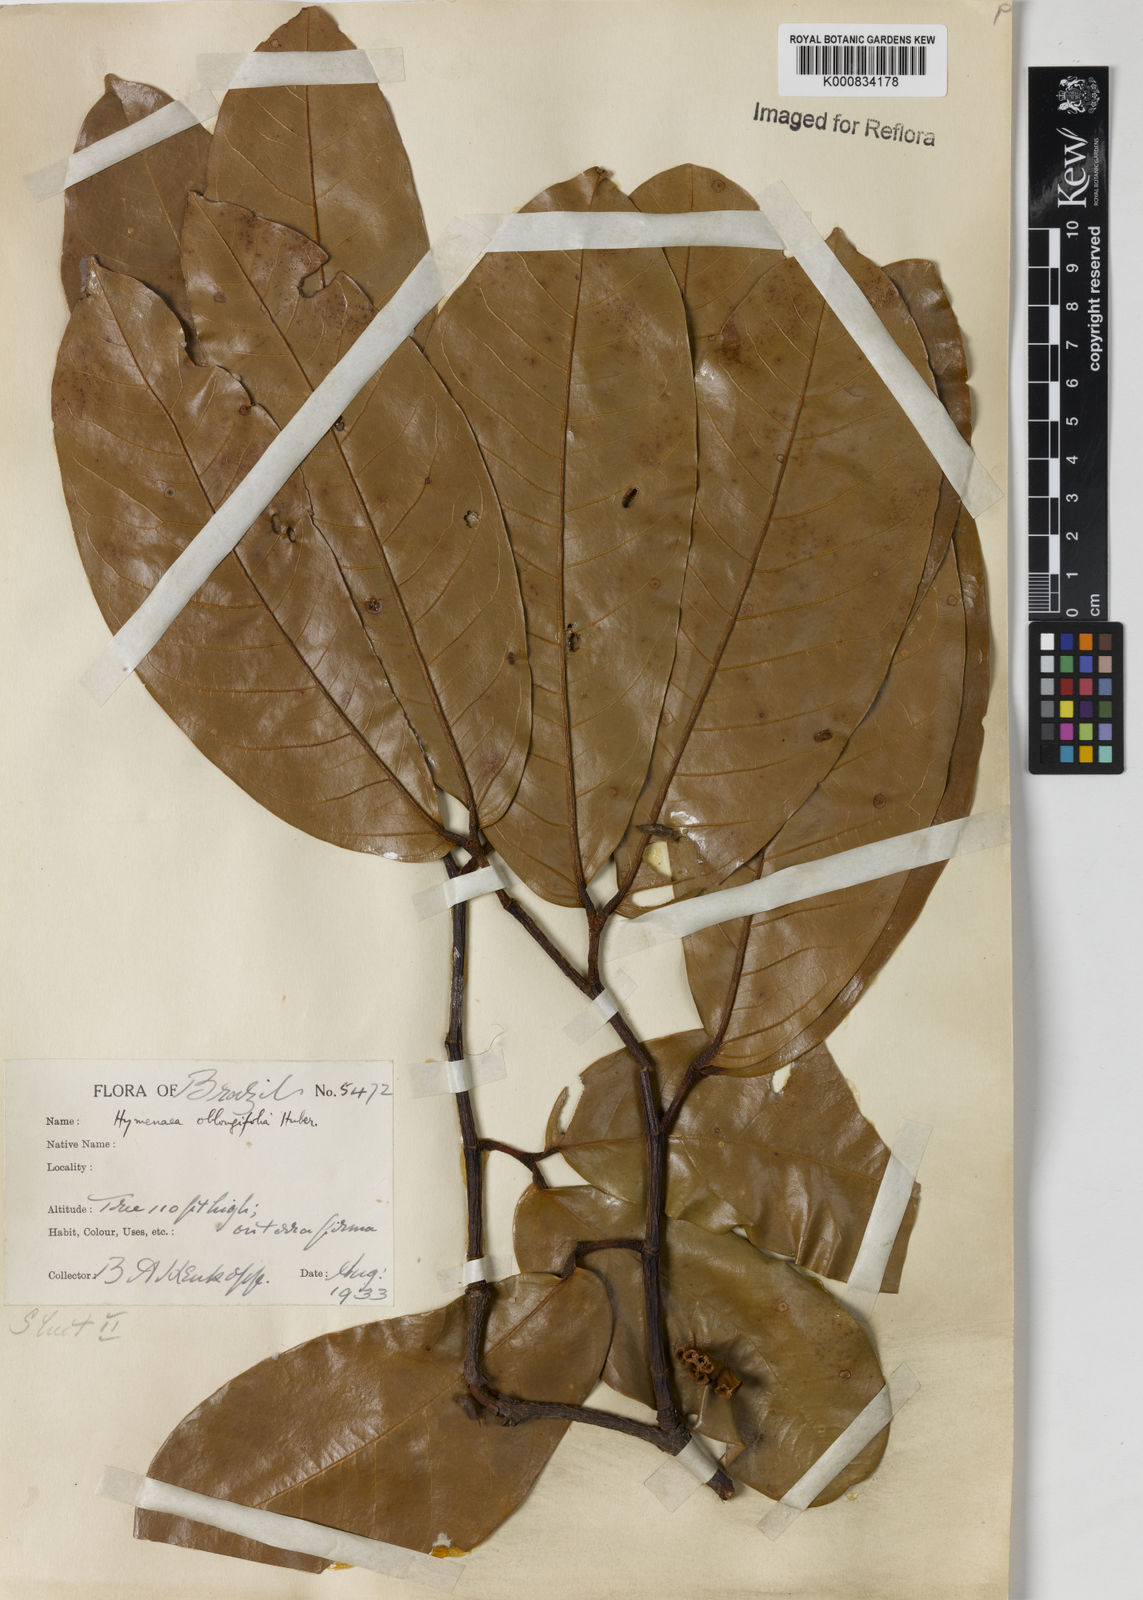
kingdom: Plantae
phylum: Tracheophyta
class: Magnoliopsida
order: Fabales
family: Fabaceae
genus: Hymenaea
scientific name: Hymenaea oblongifolia
